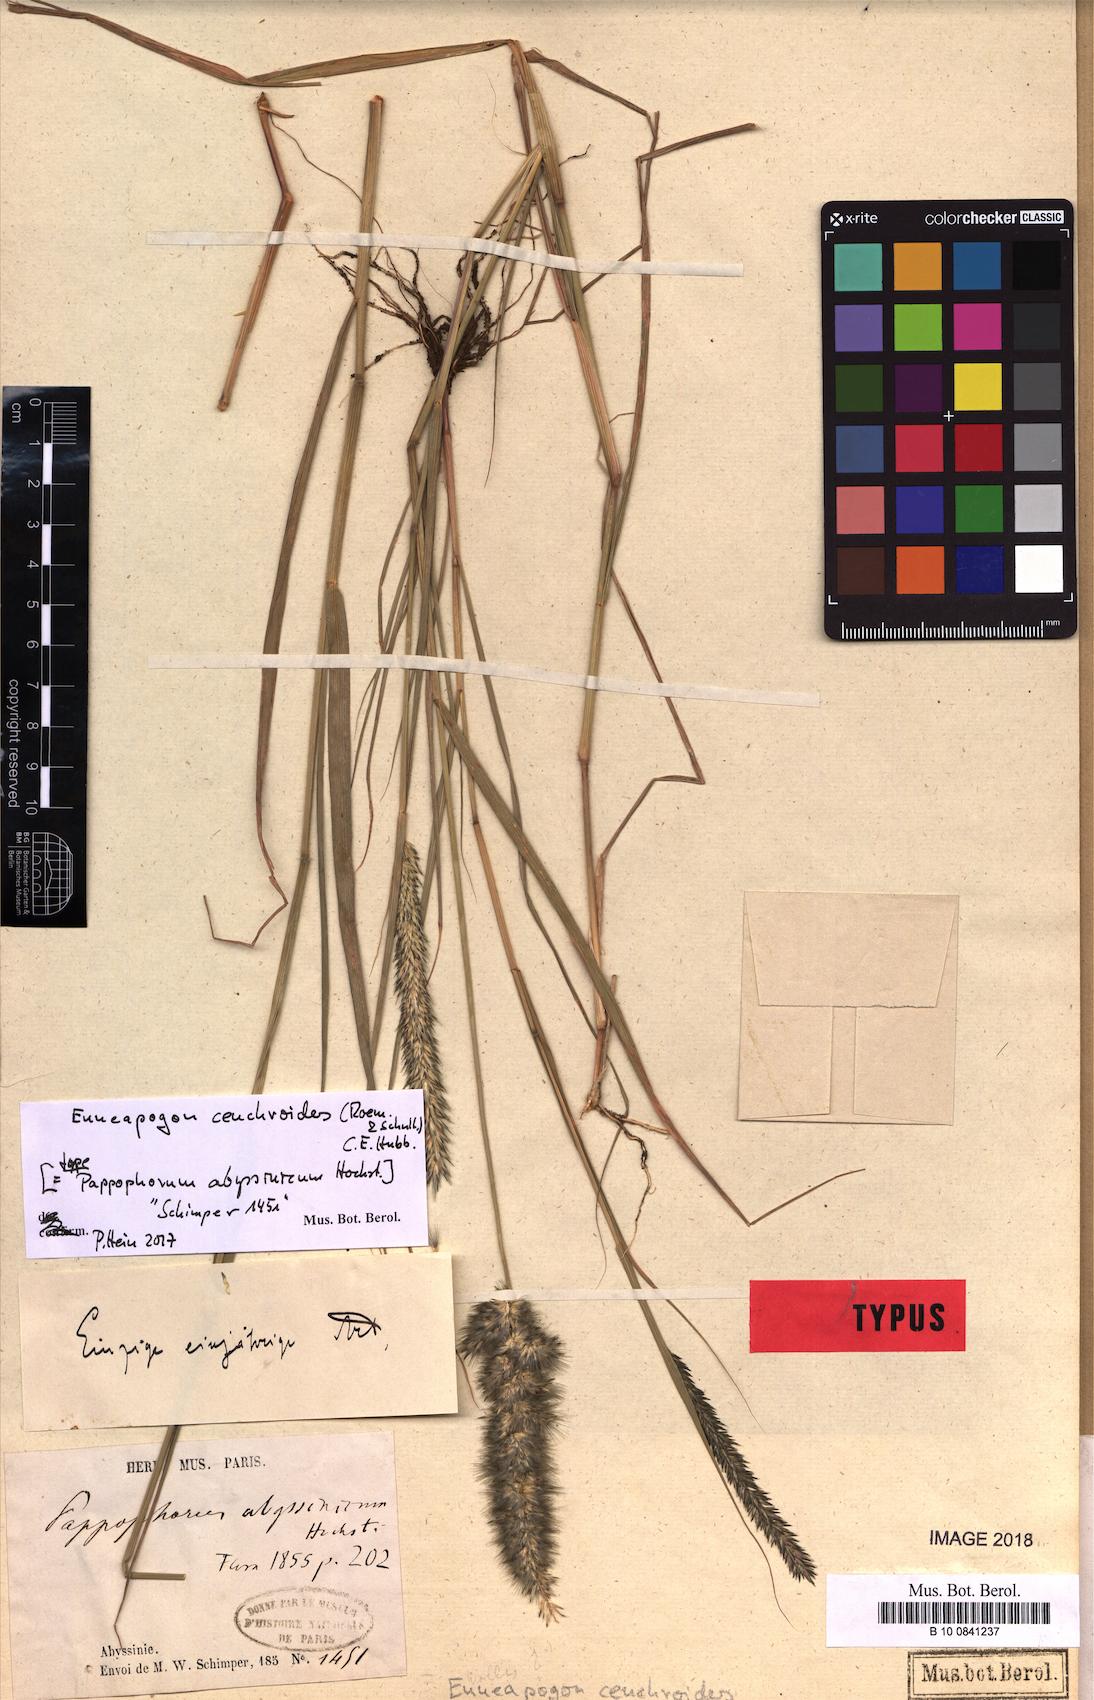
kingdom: Plantae
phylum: Tracheophyta
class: Liliopsida
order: Poales
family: Poaceae
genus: Enneapogon
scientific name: Enneapogon cenchroides
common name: Soft feather pappusgrass
